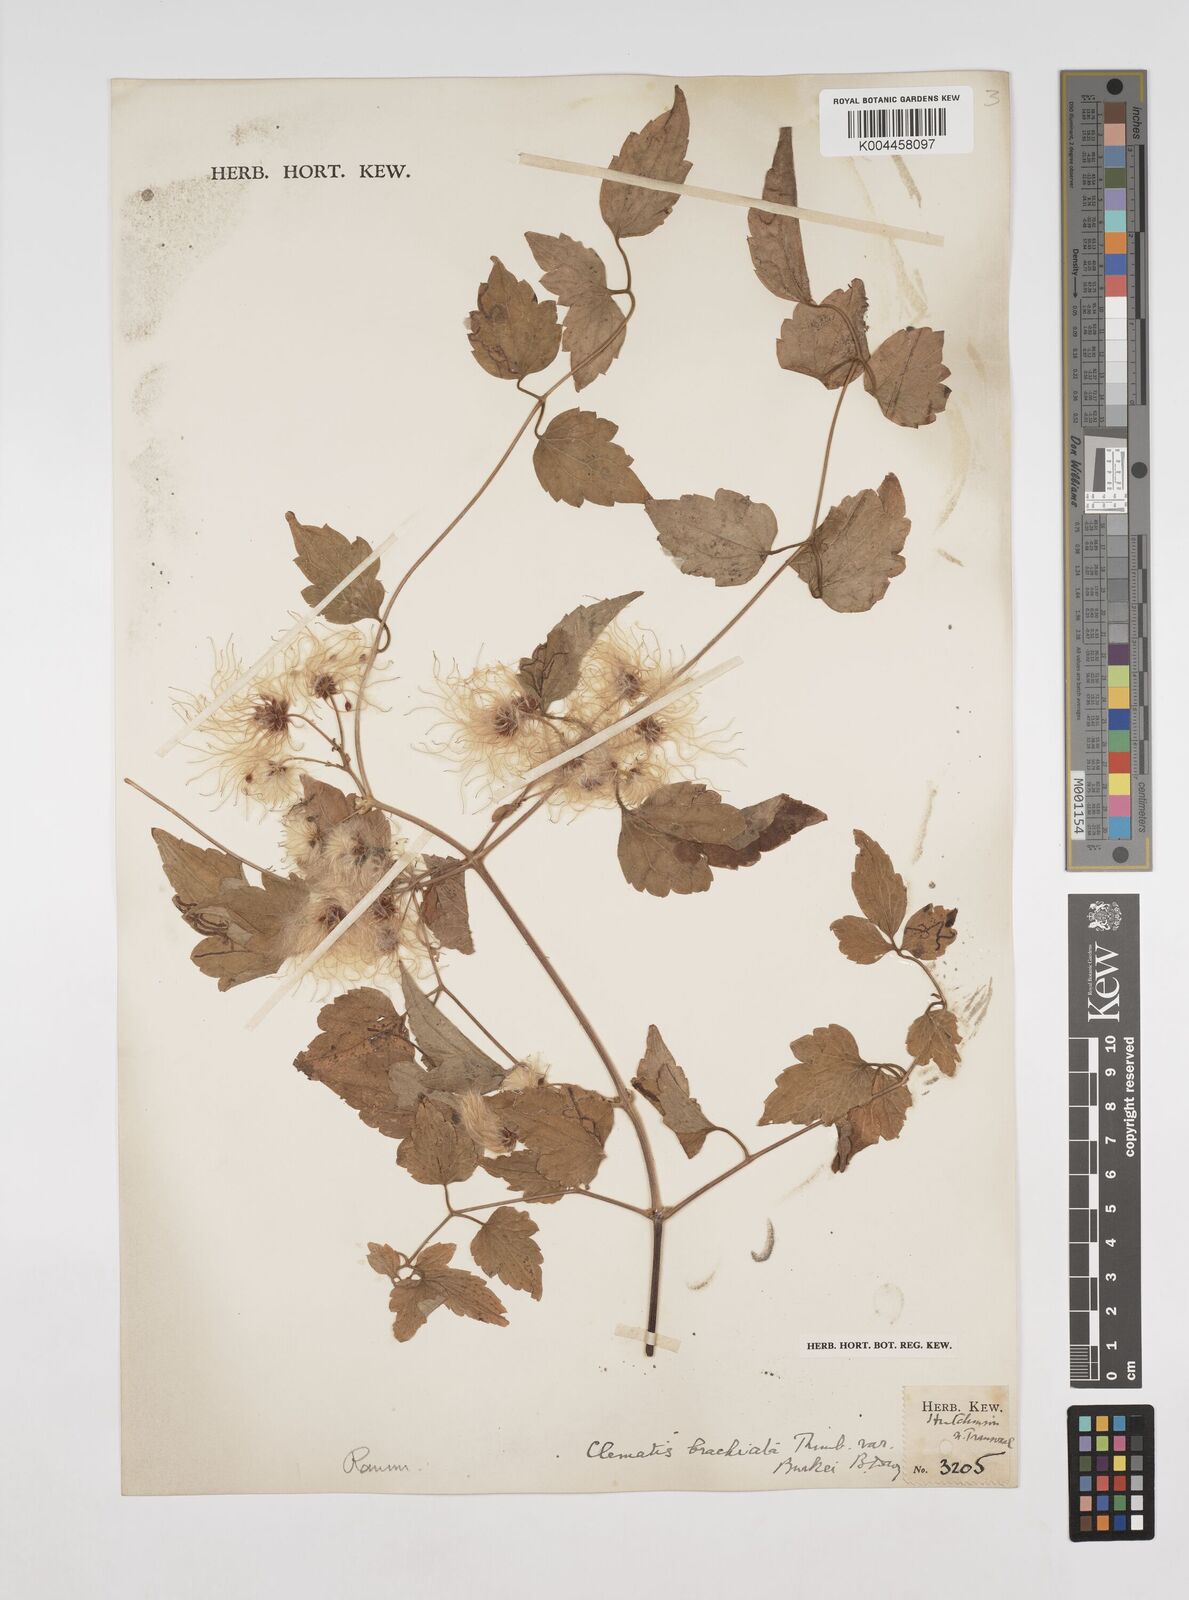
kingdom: Plantae
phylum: Tracheophyta
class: Magnoliopsida
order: Ranunculales
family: Ranunculaceae
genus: Clematis
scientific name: Clematis brachiata
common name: Traveler's-joy
